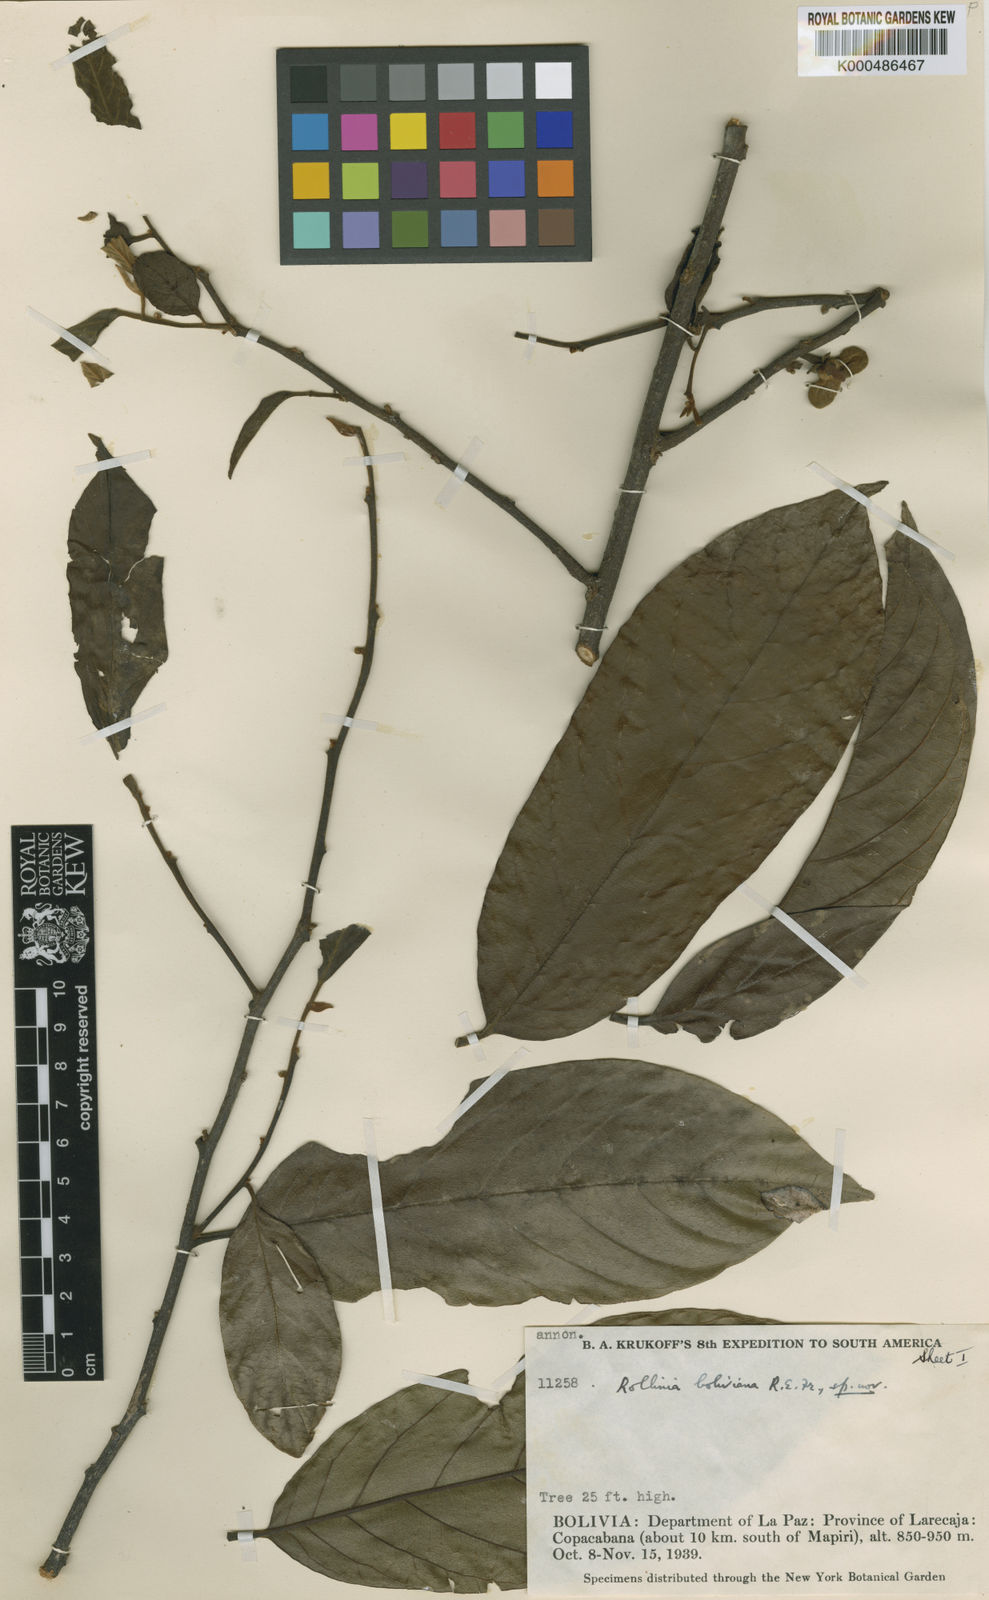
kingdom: Plantae
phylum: Tracheophyta
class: Magnoliopsida
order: Magnoliales
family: Annonaceae
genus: Annona
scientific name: Annona boliviana
